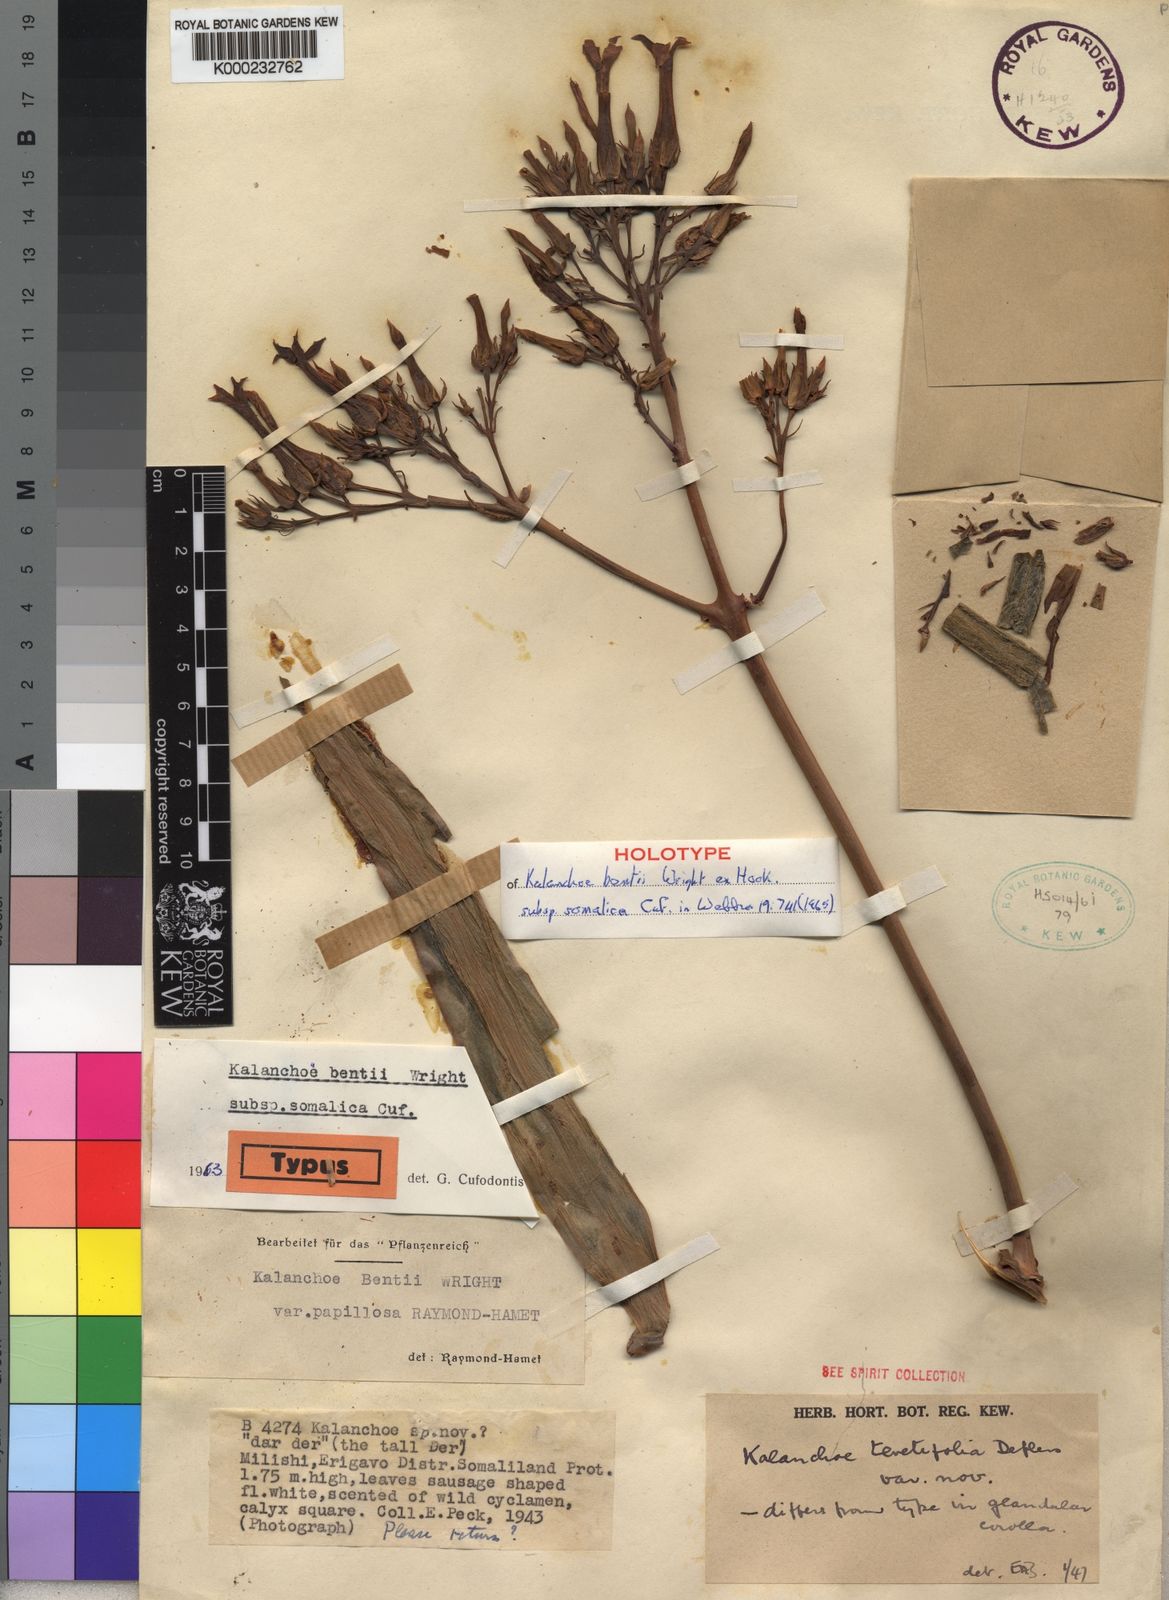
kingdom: Plantae
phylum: Tracheophyta
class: Magnoliopsida
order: Saxifragales
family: Crassulaceae
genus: Kalanchoe
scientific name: Kalanchoe bentii
